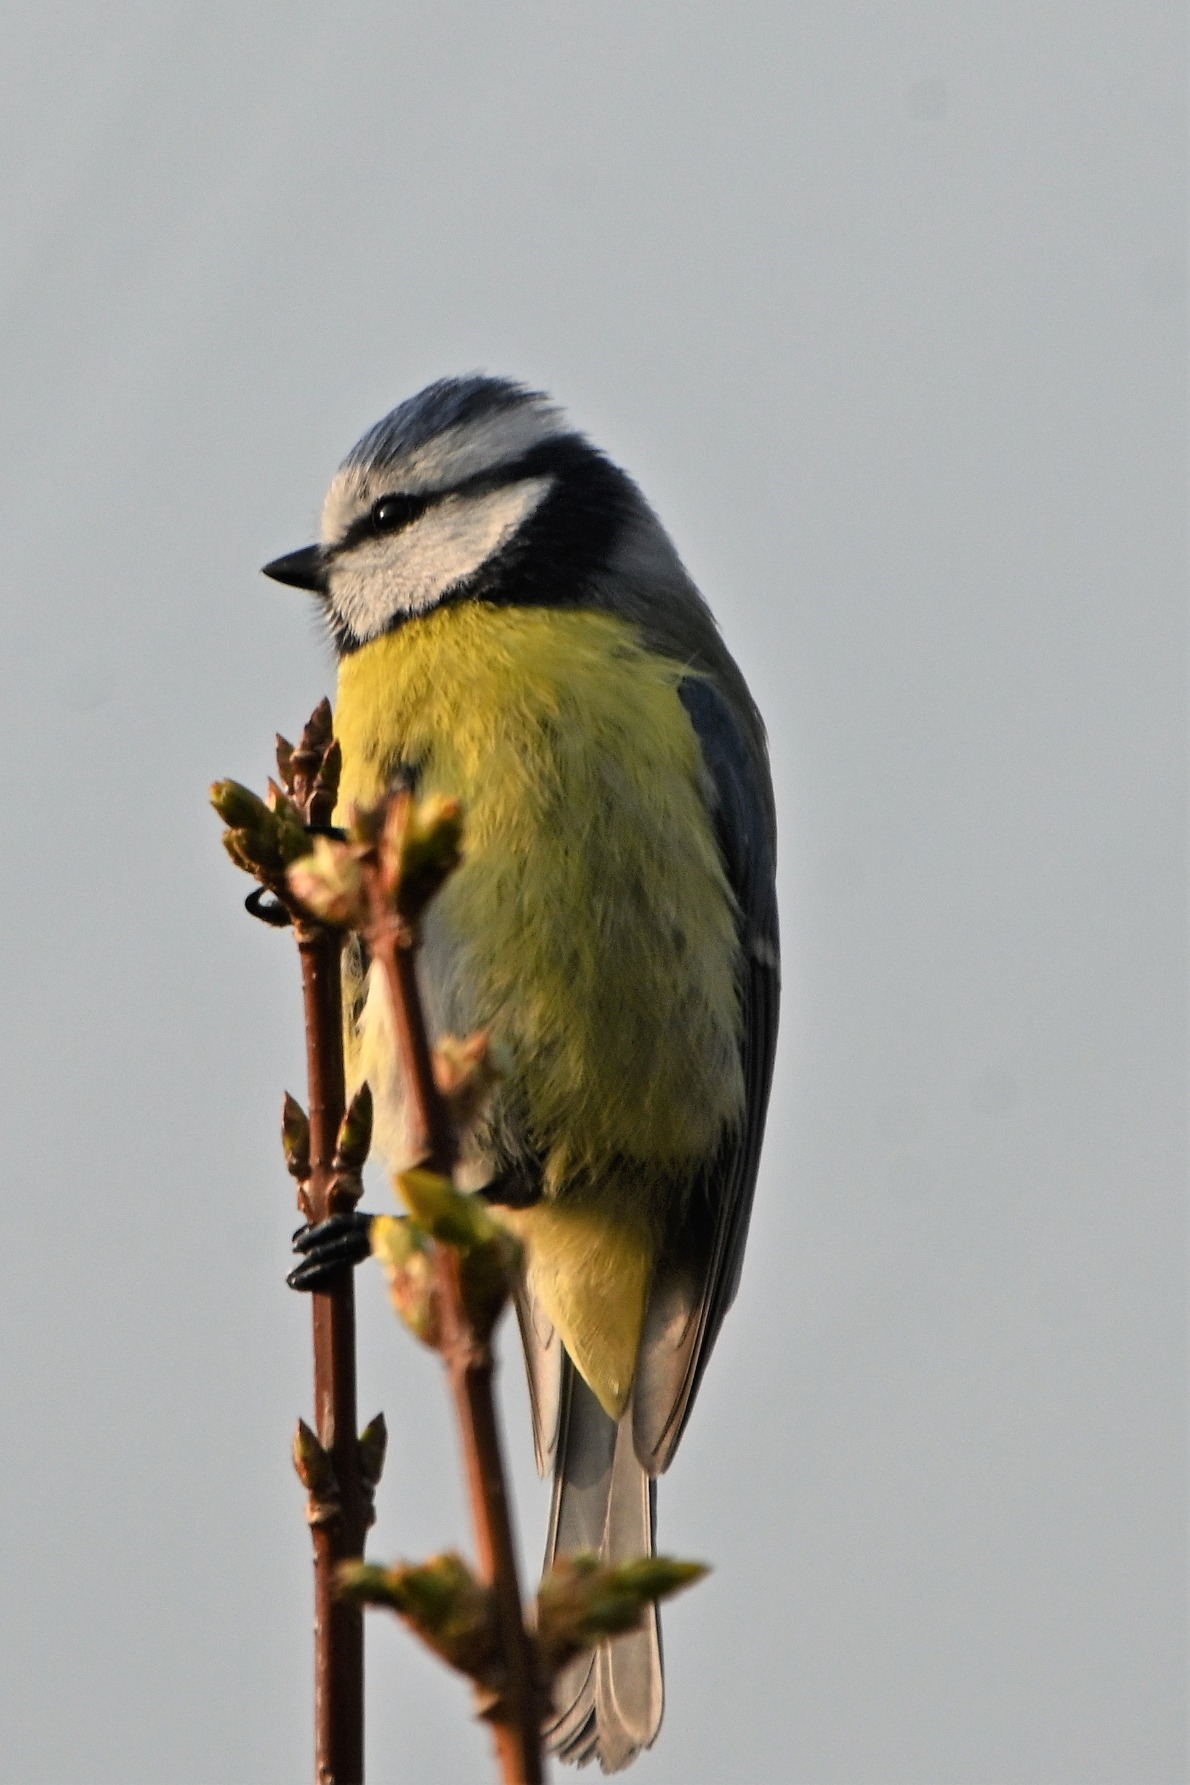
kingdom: Animalia
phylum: Chordata
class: Aves
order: Passeriformes
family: Paridae
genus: Cyanistes
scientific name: Cyanistes caeruleus
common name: Blåmejse
